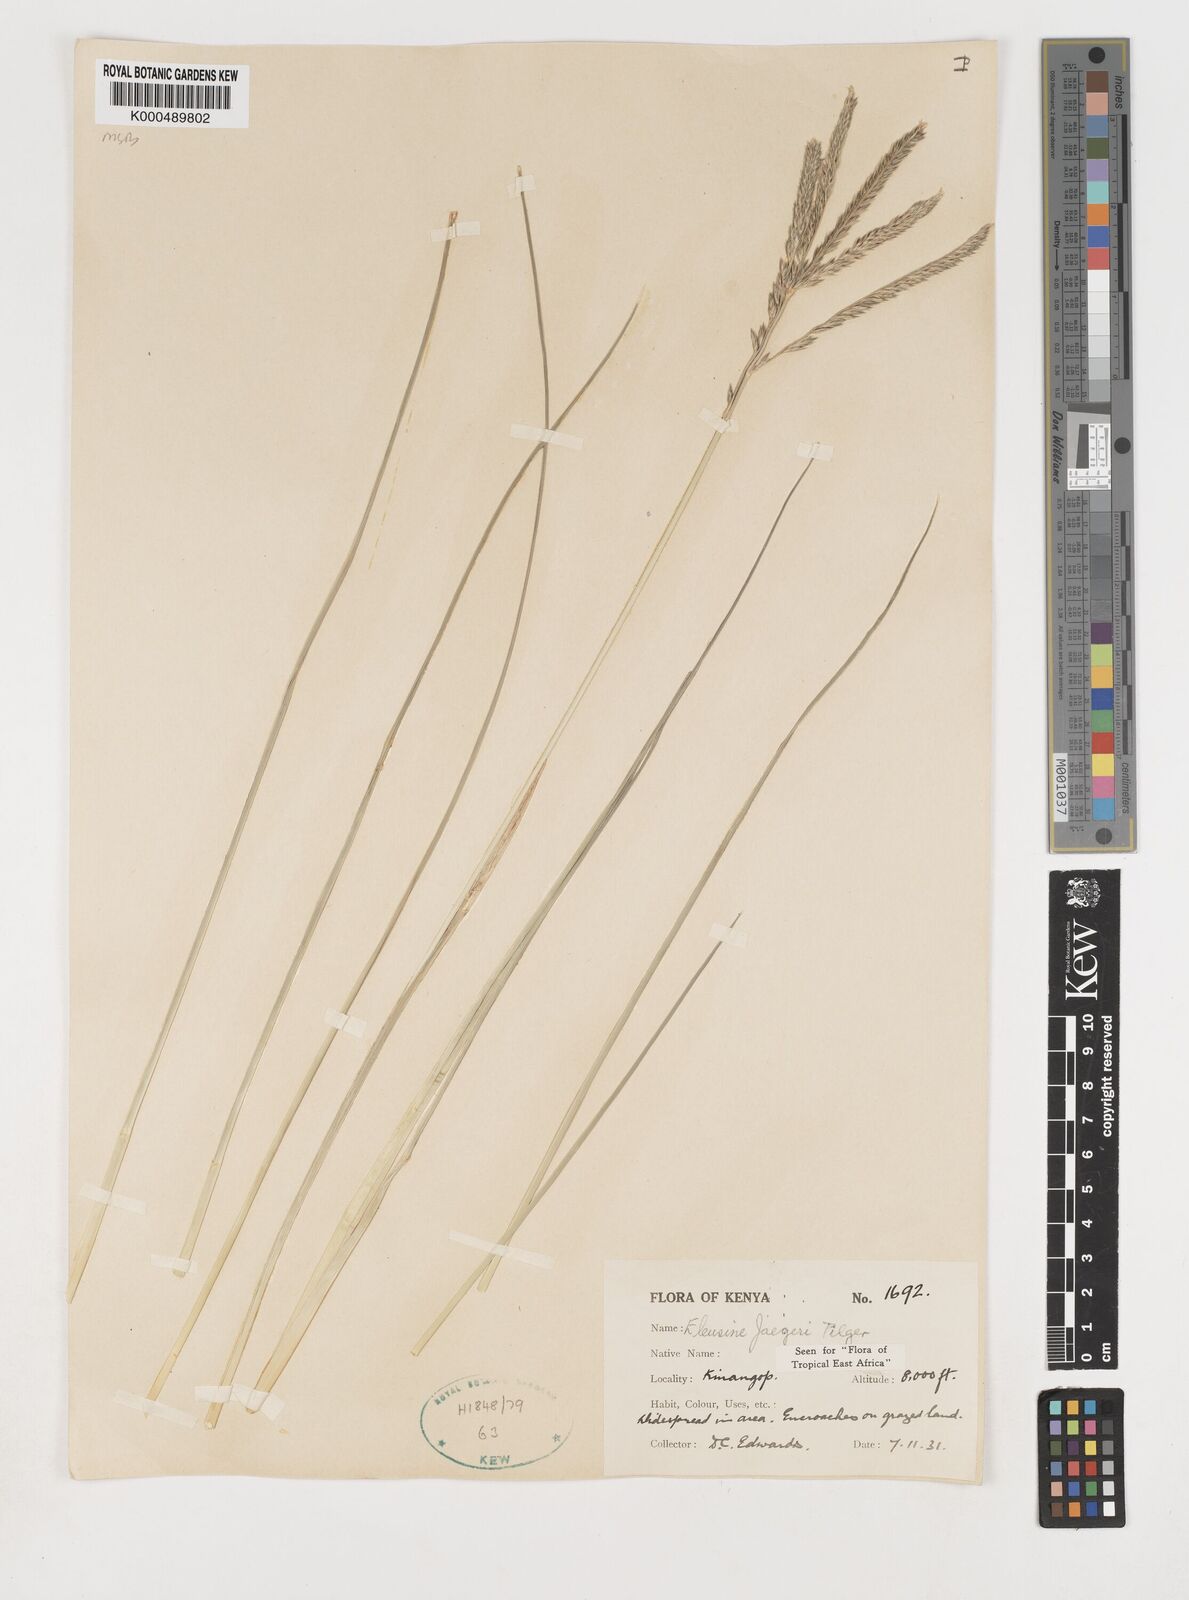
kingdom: Plantae
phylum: Tracheophyta
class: Liliopsida
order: Poales
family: Poaceae
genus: Eleusine
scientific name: Eleusine jaegeri
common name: Manyatta grass
